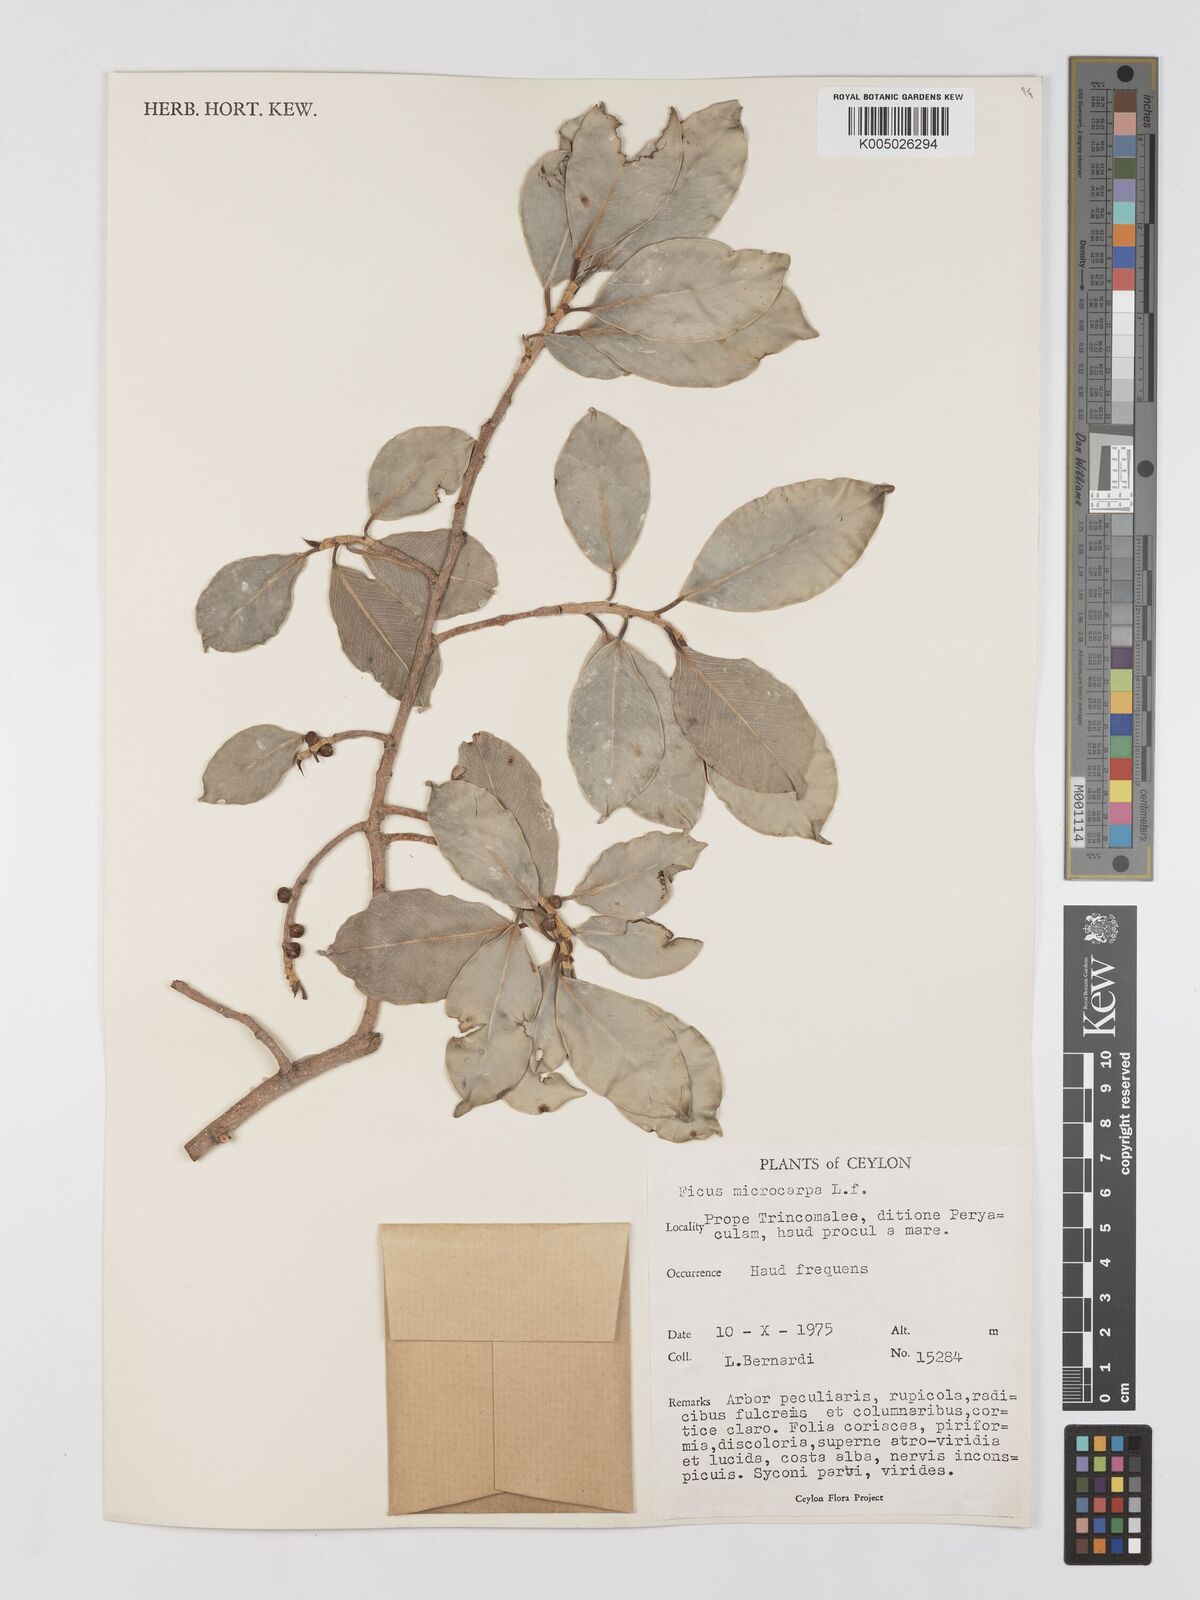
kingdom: Plantae
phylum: Tracheophyta
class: Magnoliopsida
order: Rosales
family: Moraceae
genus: Ficus
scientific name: Ficus
